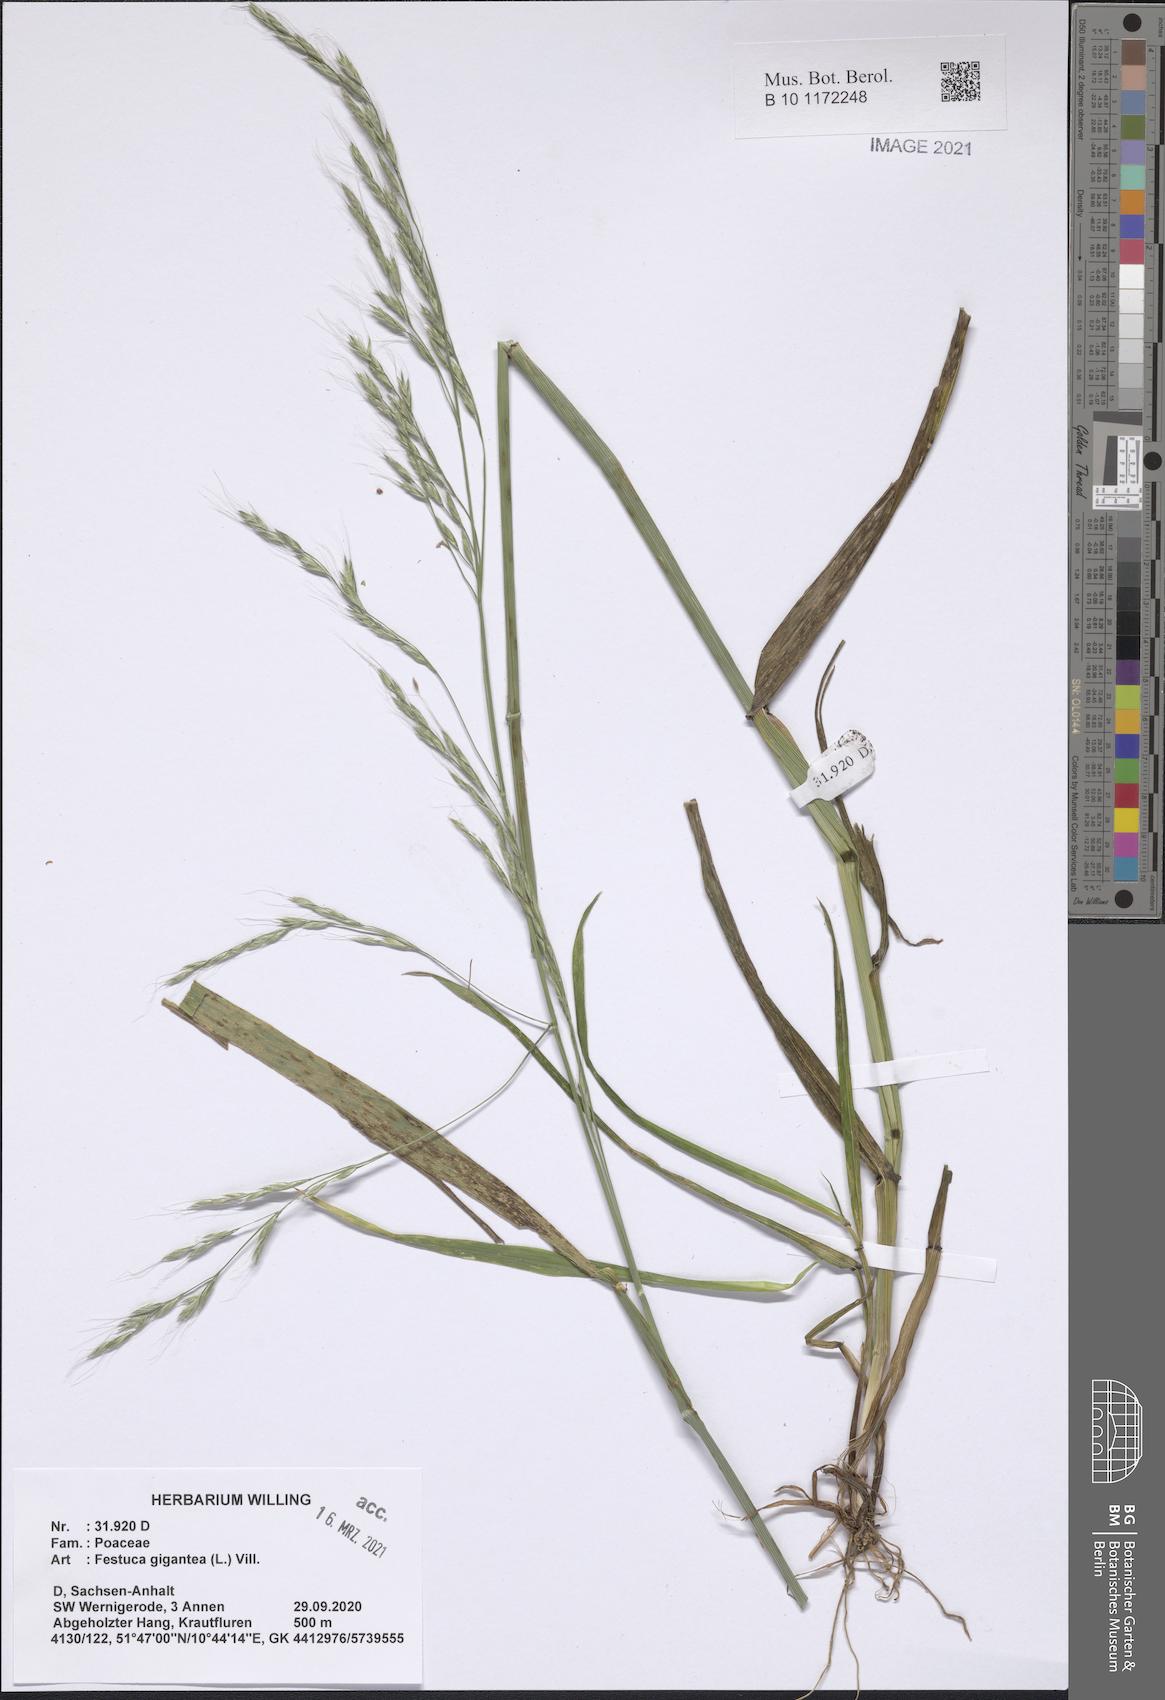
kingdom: Plantae
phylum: Tracheophyta
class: Liliopsida
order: Poales
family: Poaceae
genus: Lolium
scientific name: Lolium giganteum
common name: Giant fescue
